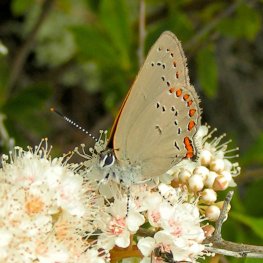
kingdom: Animalia
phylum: Arthropoda
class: Insecta
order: Lepidoptera
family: Lycaenidae
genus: Harkenclenus
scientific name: Harkenclenus titus
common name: Coral Hairstreak
